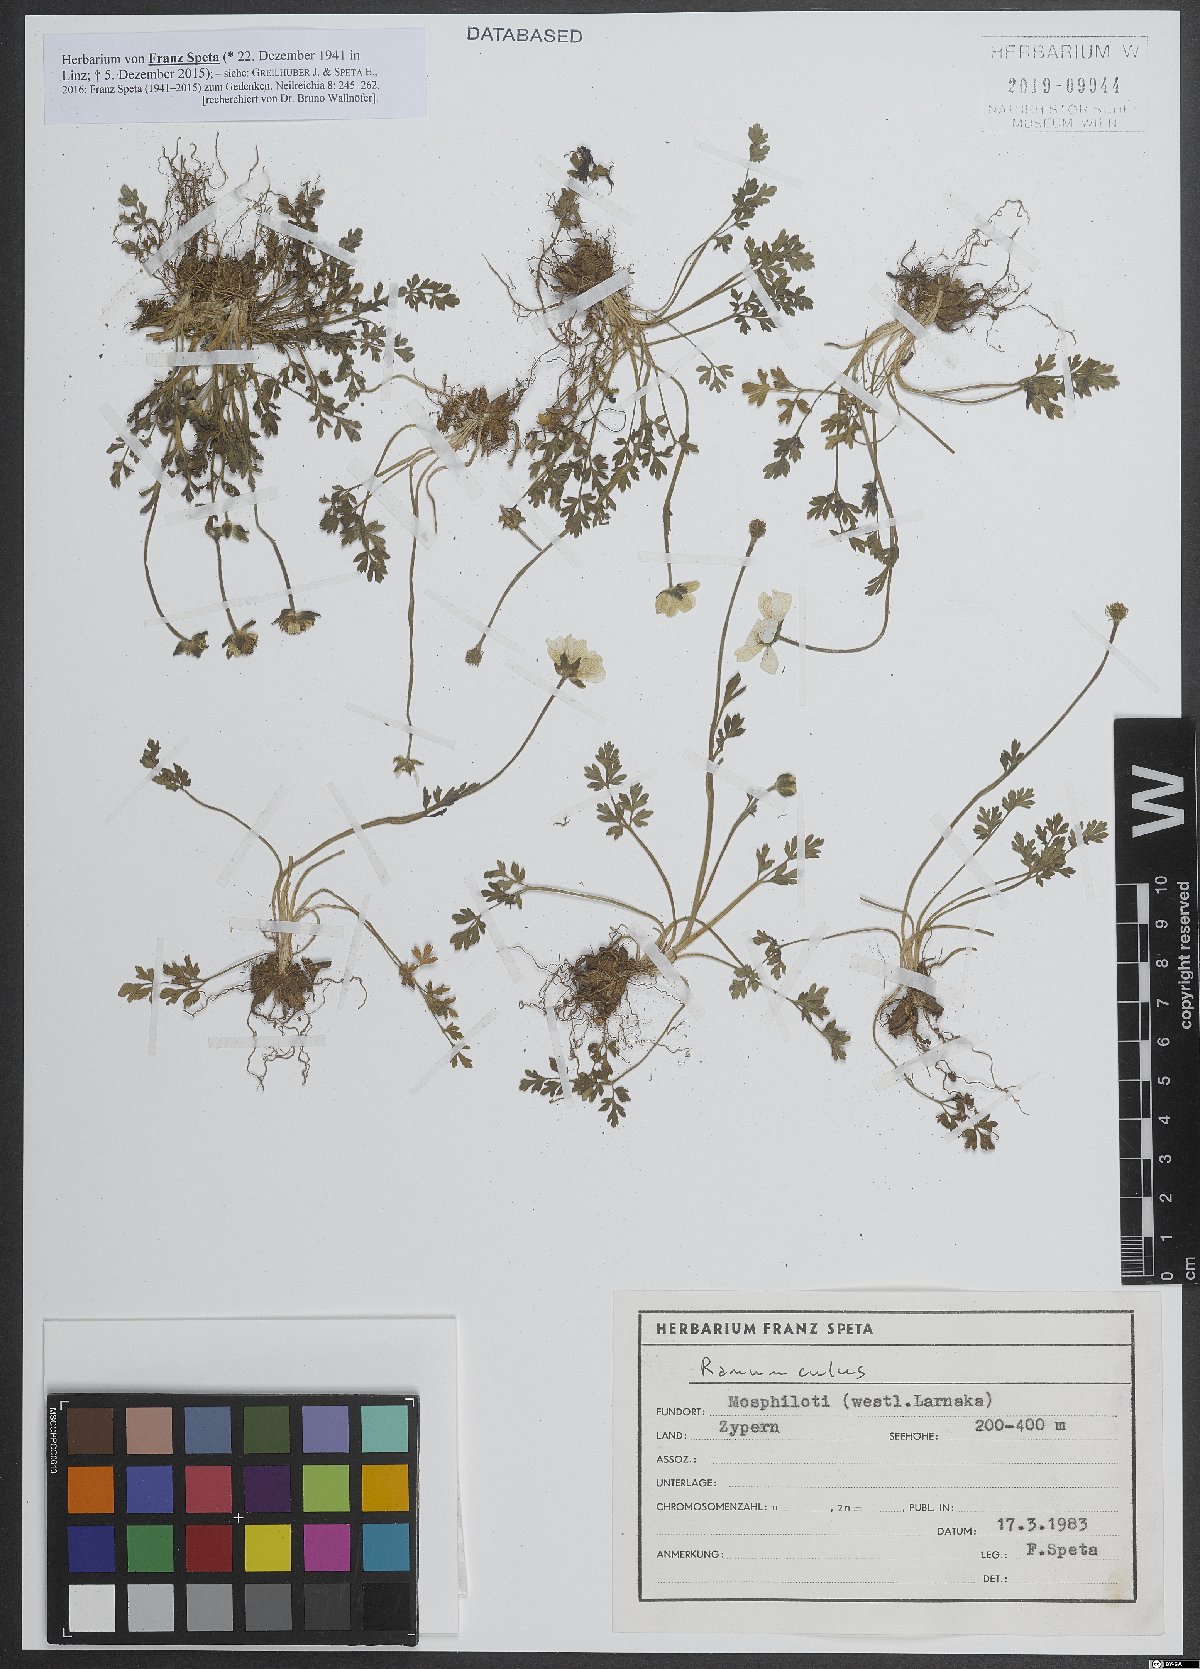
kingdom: Plantae
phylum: Tracheophyta
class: Magnoliopsida
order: Ranunculales
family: Ranunculaceae
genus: Ranunculus
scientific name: Ranunculus
